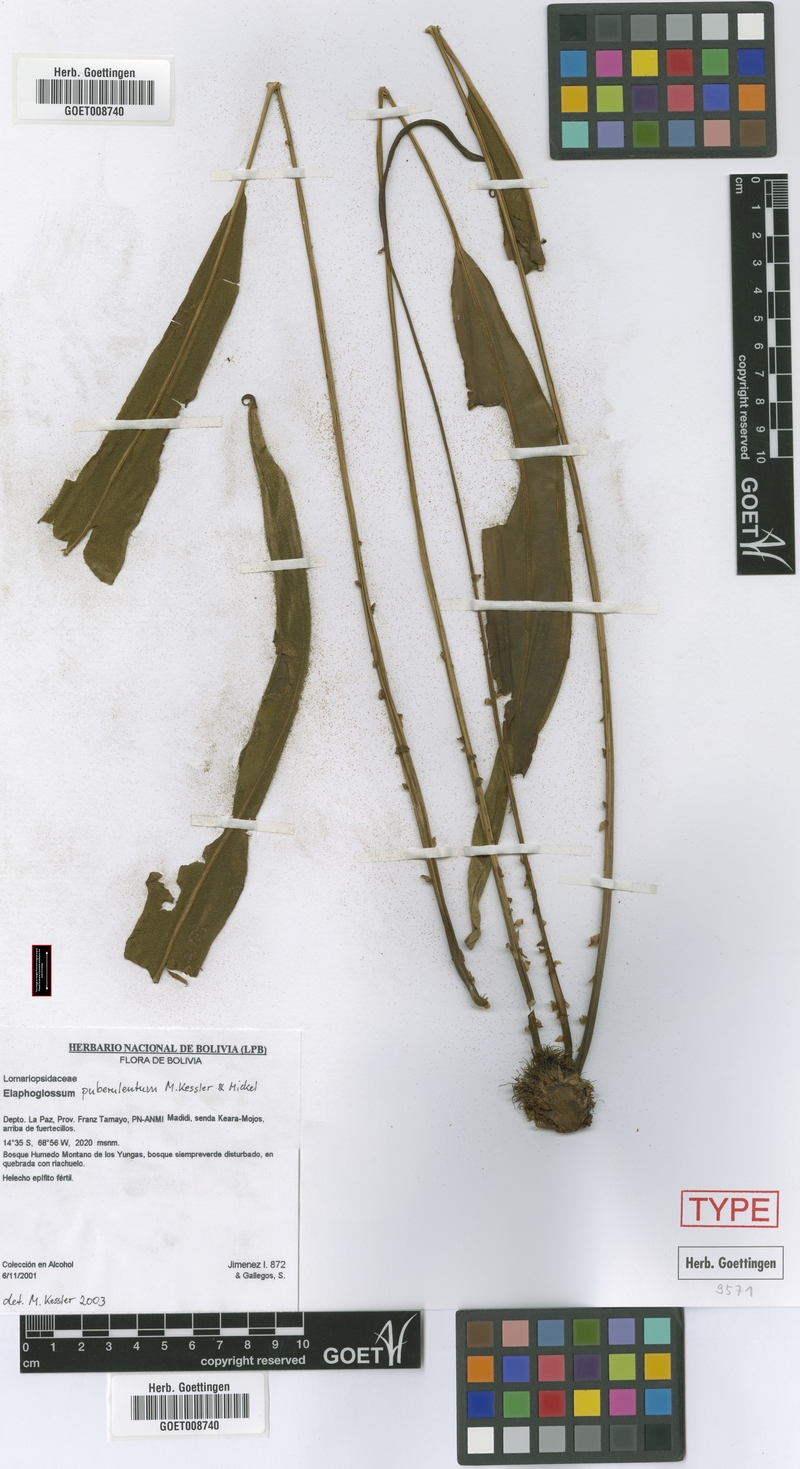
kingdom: Plantae
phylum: Tracheophyta
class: Polypodiopsida
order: Polypodiales
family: Dryopteridaceae
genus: Elaphoglossum
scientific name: Elaphoglossum papyraceum
